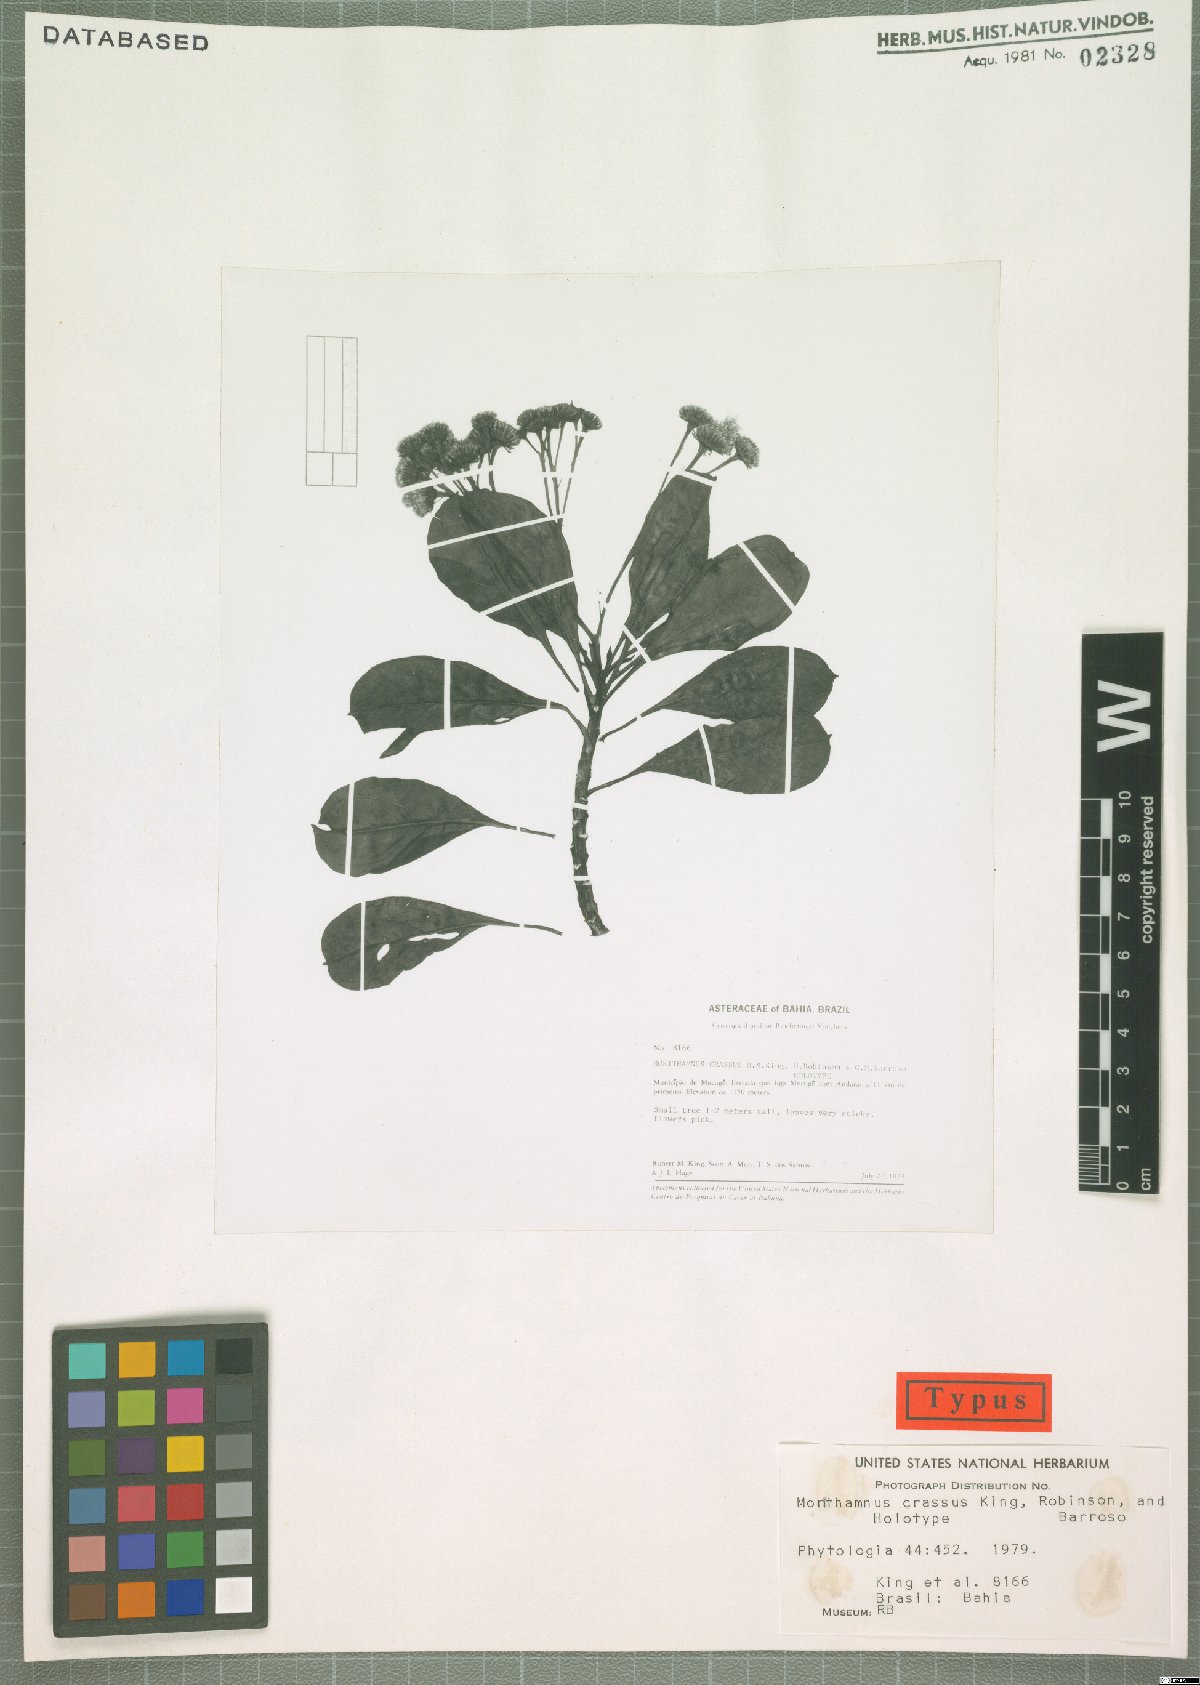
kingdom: Plantae
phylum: Tracheophyta
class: Magnoliopsida
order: Asterales
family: Asteraceae
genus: Morithamnus
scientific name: Morithamnus crassus
